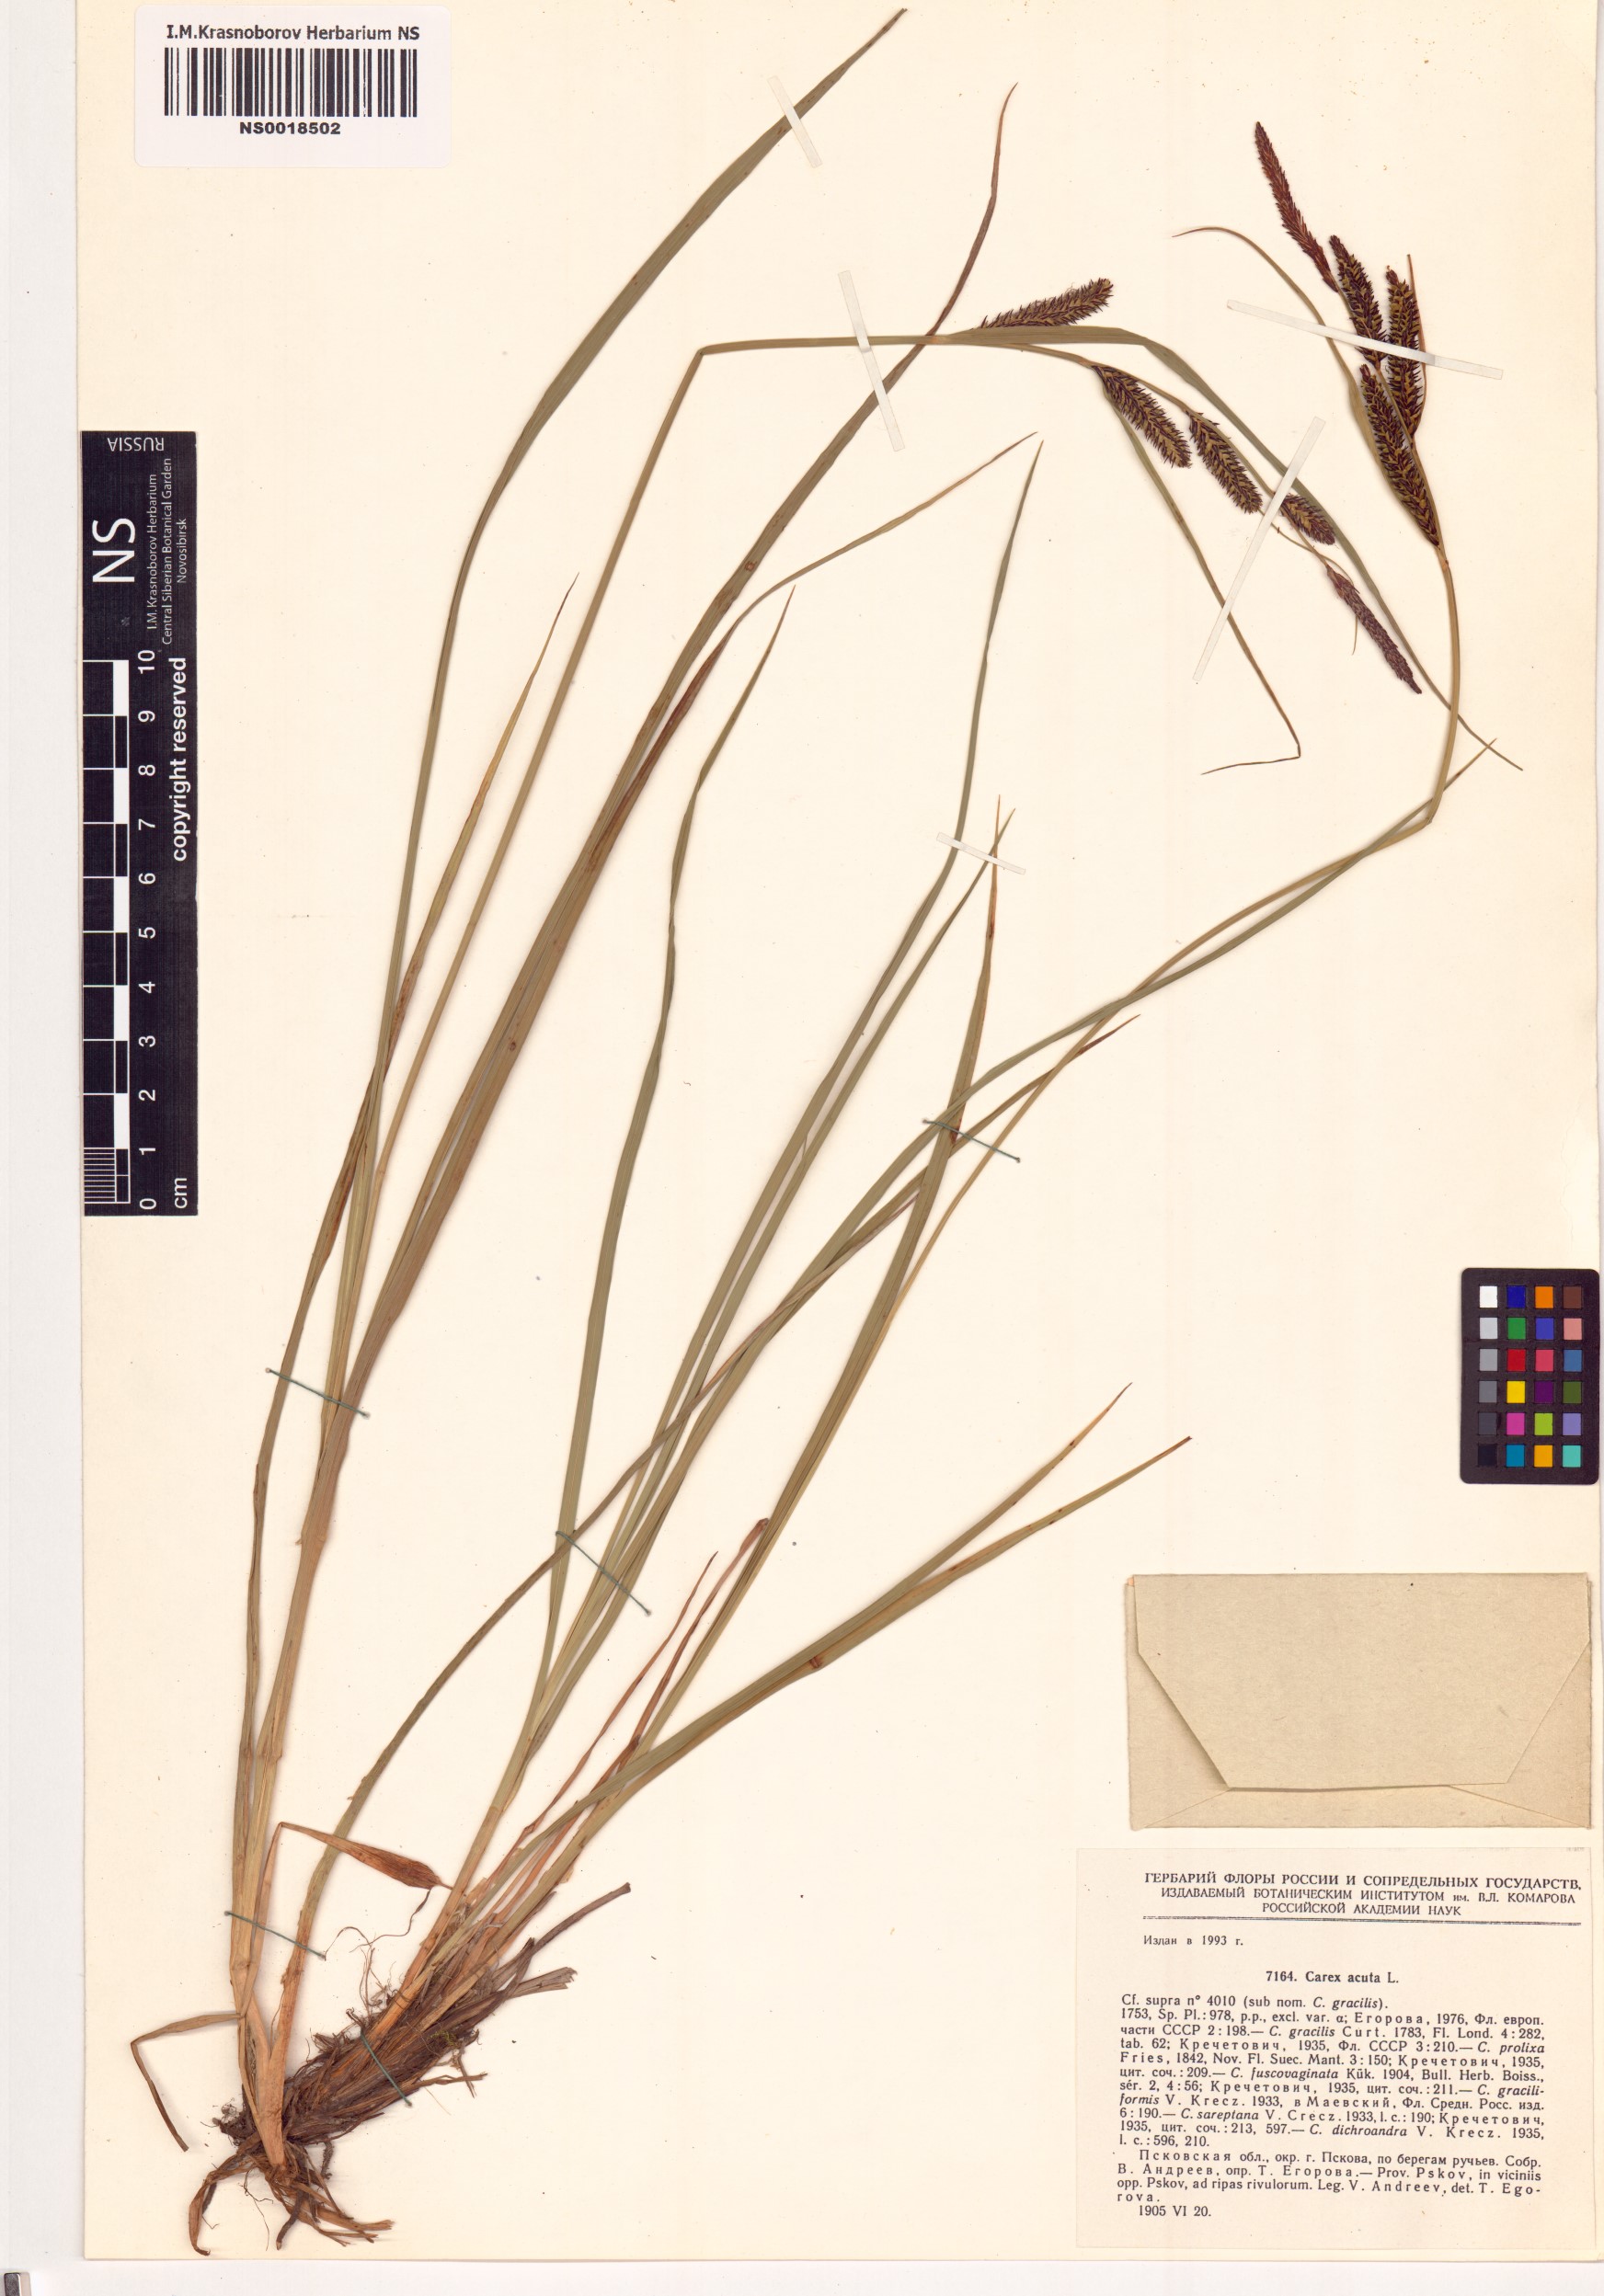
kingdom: Plantae
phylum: Tracheophyta
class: Liliopsida
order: Poales
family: Cyperaceae
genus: Carex
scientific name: Carex acuta
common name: Slender tufted-sedge
